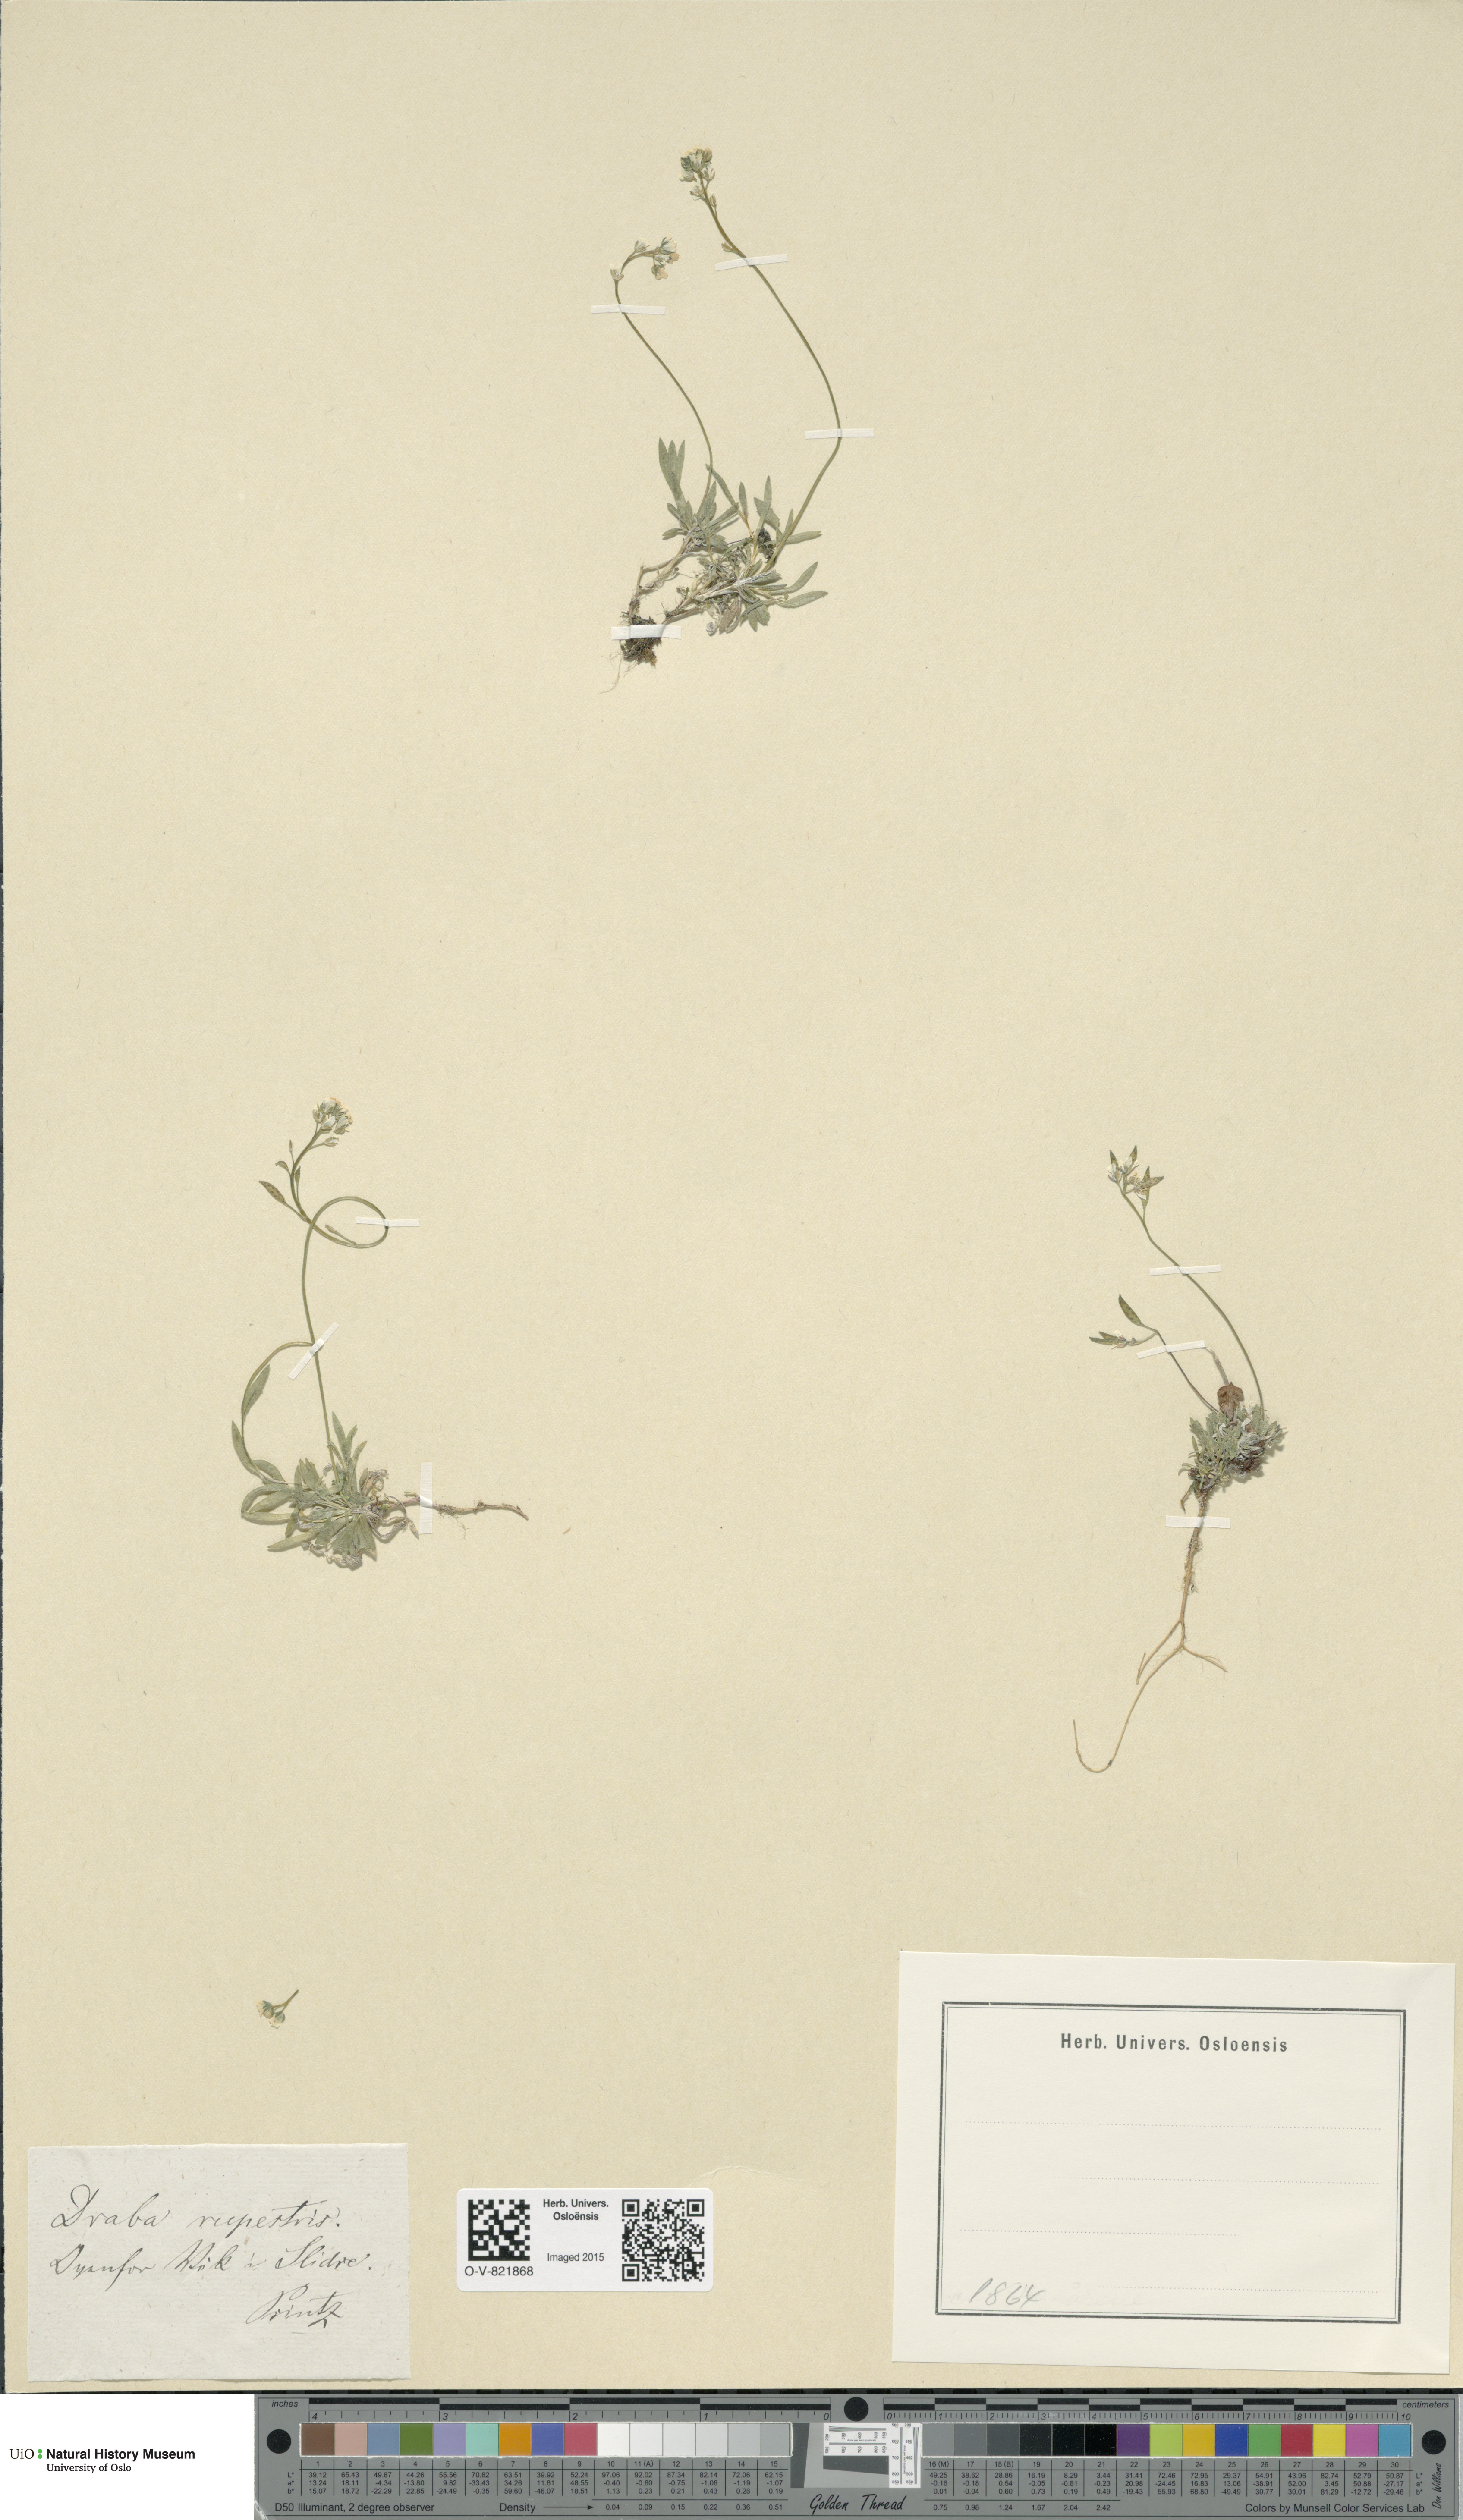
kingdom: Plantae
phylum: Tracheophyta
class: Magnoliopsida
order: Brassicales
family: Brassicaceae
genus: Draba
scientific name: Draba norvegica
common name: Rock whitlowgrass
